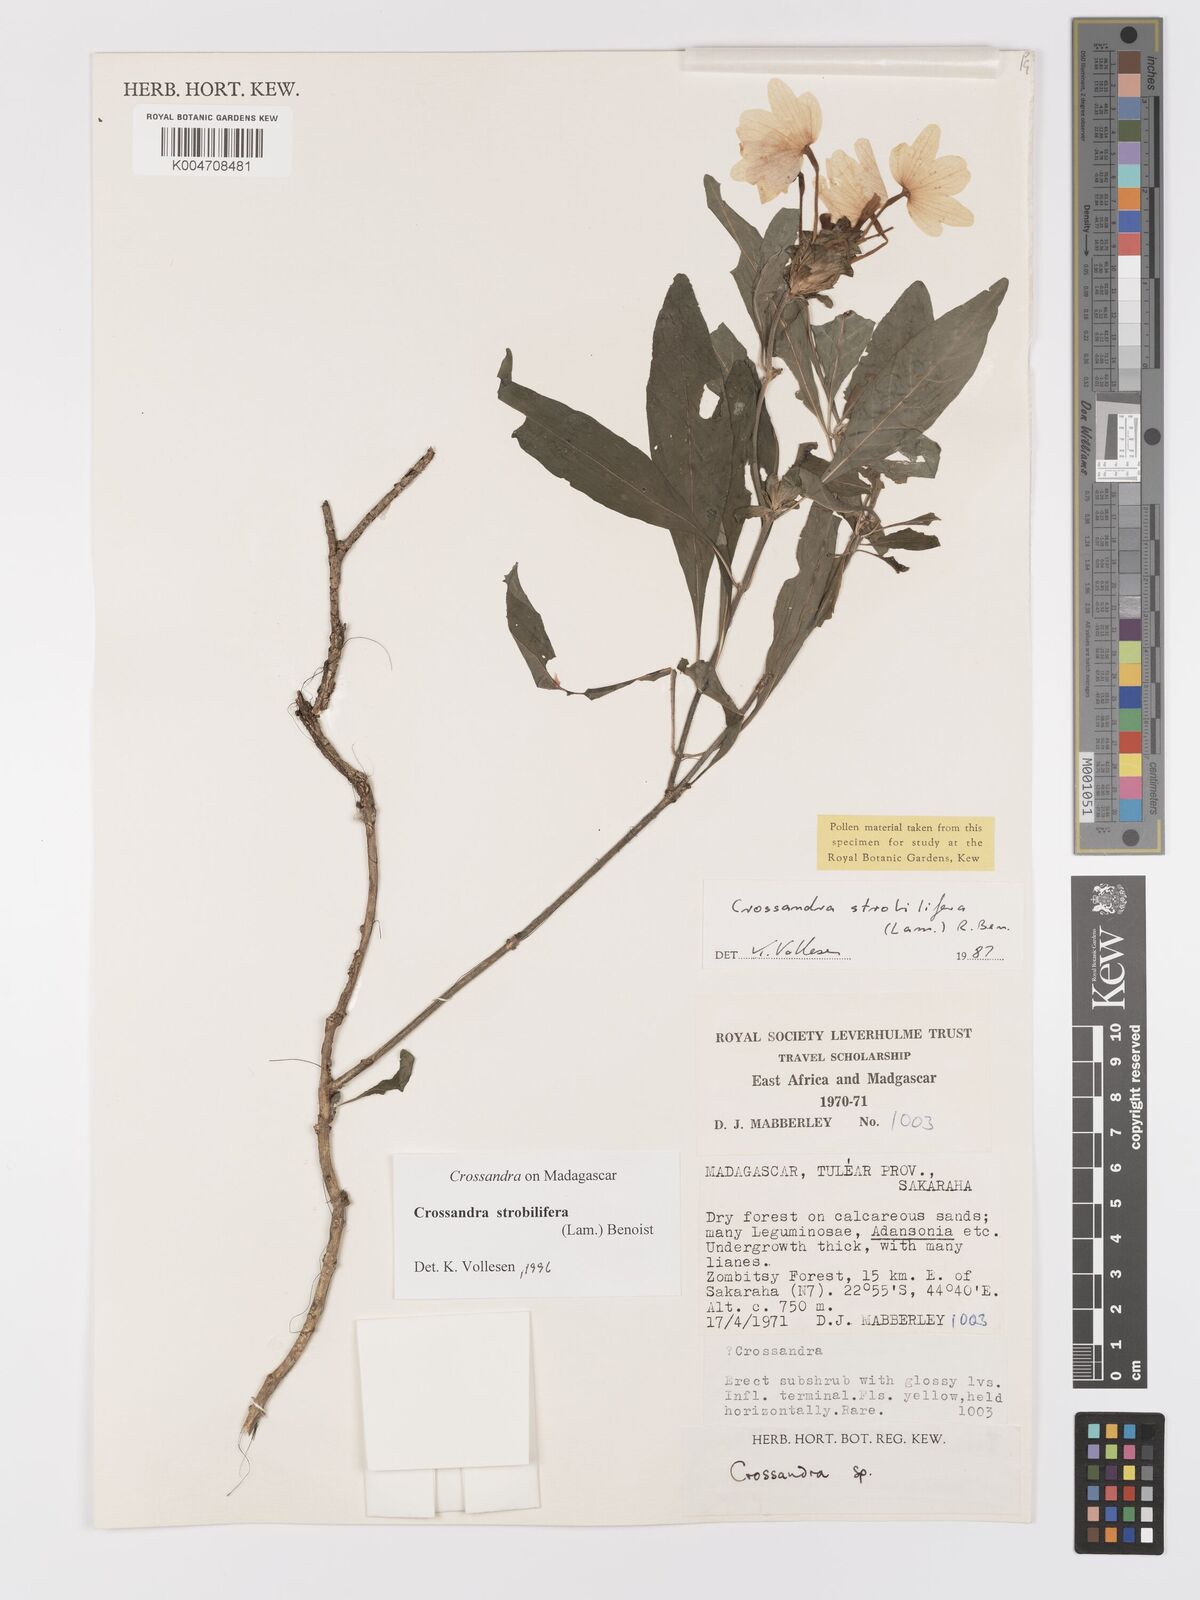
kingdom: Plantae
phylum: Tracheophyta
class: Magnoliopsida
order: Lamiales
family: Acanthaceae
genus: Crossandra
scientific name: Crossandra strobilifera
